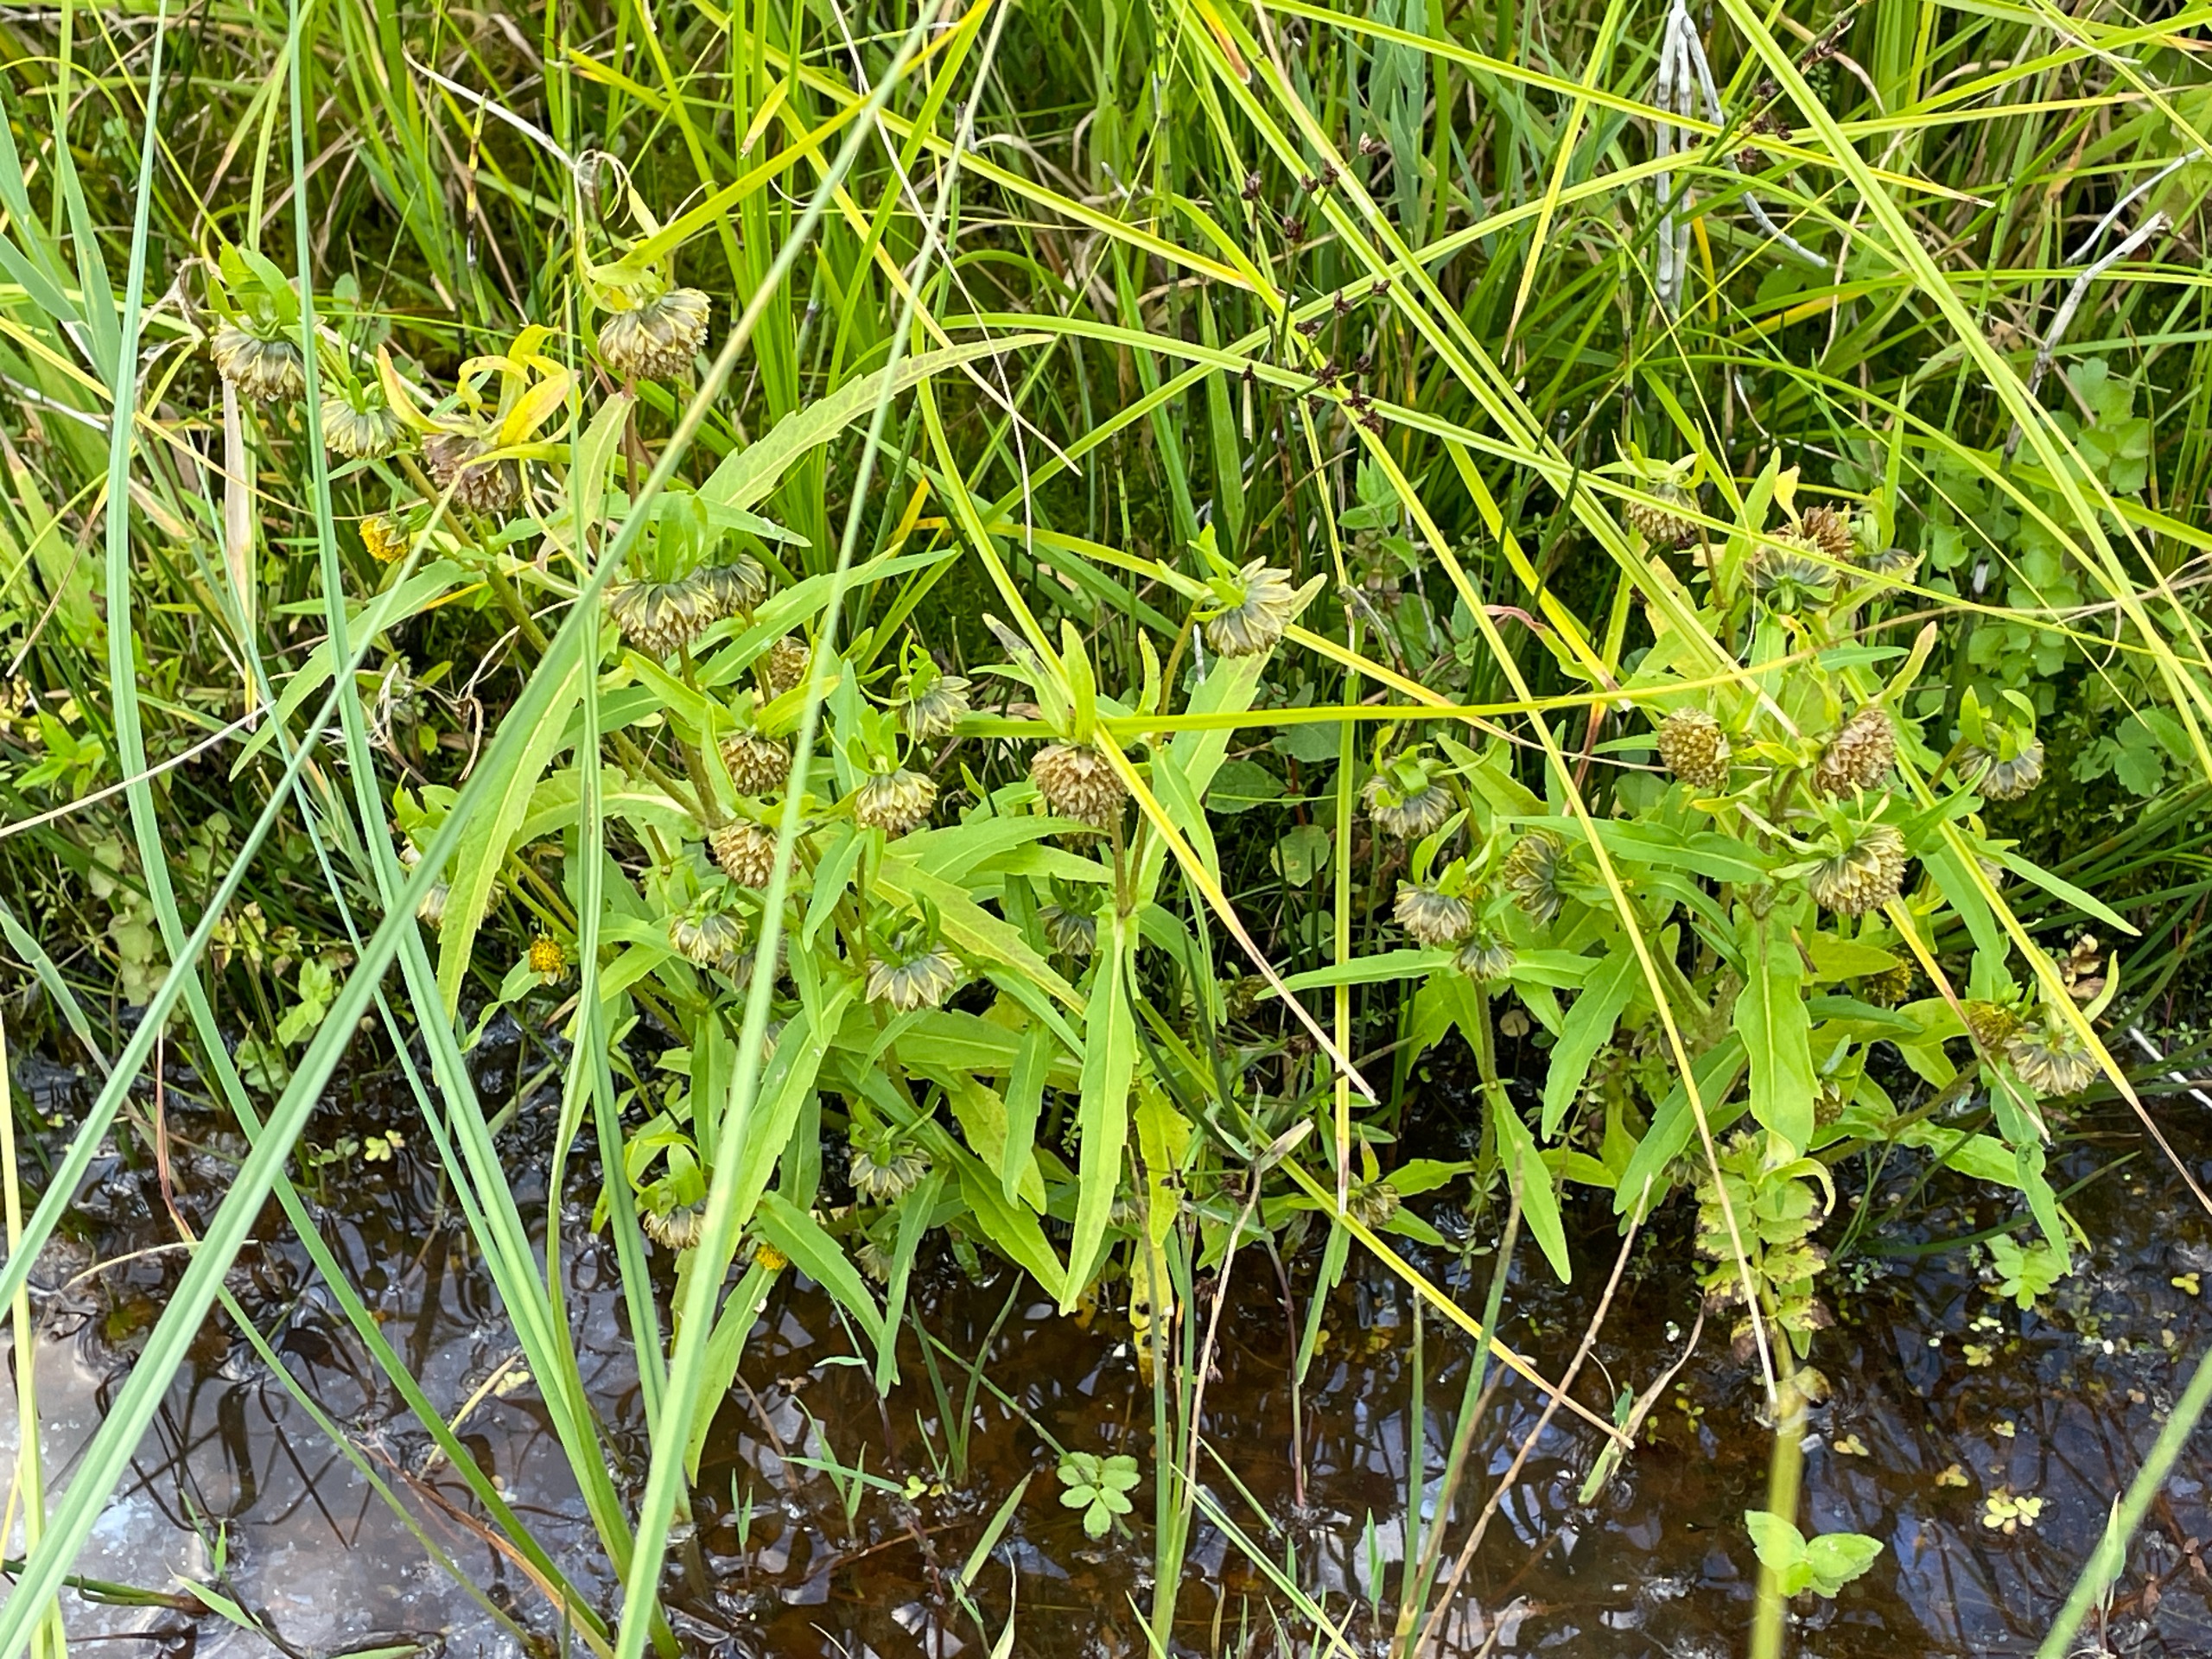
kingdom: Plantae
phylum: Tracheophyta
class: Magnoliopsida
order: Asterales
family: Asteraceae
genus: Bidens
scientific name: Bidens cernua
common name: Nikkende brøndsel
